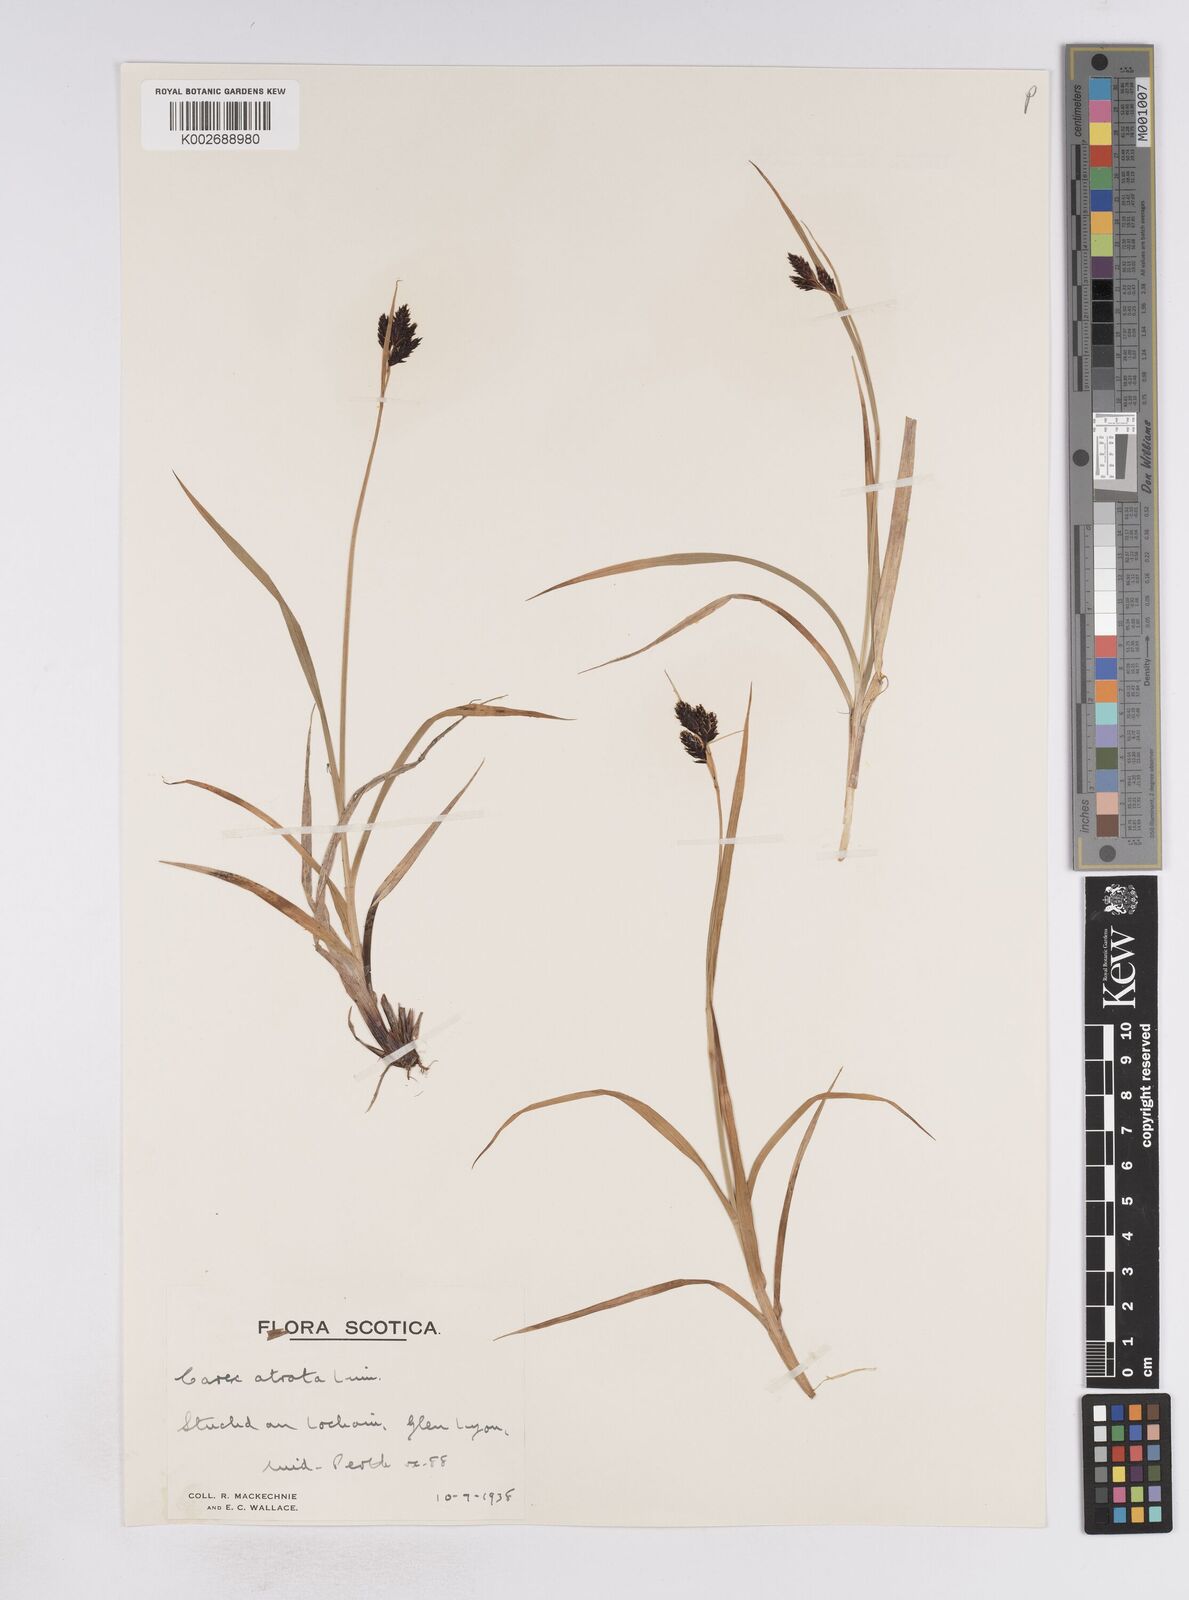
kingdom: Plantae
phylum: Tracheophyta
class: Liliopsida
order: Poales
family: Cyperaceae
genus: Carex
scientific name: Carex atrata
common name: Black alpine sedge
